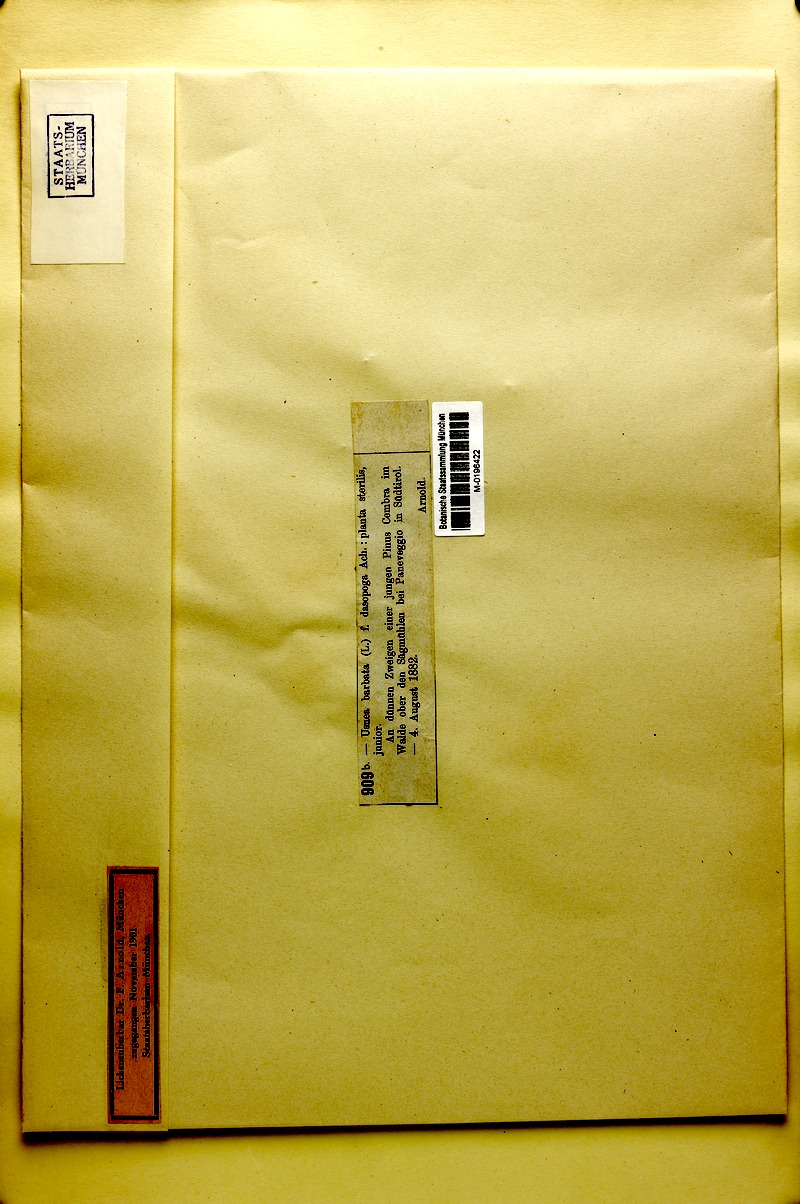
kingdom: Fungi
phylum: Ascomycota
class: Lecanoromycetes
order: Lecanorales
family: Parmeliaceae
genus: Usnea
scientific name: Usnea substerilis
